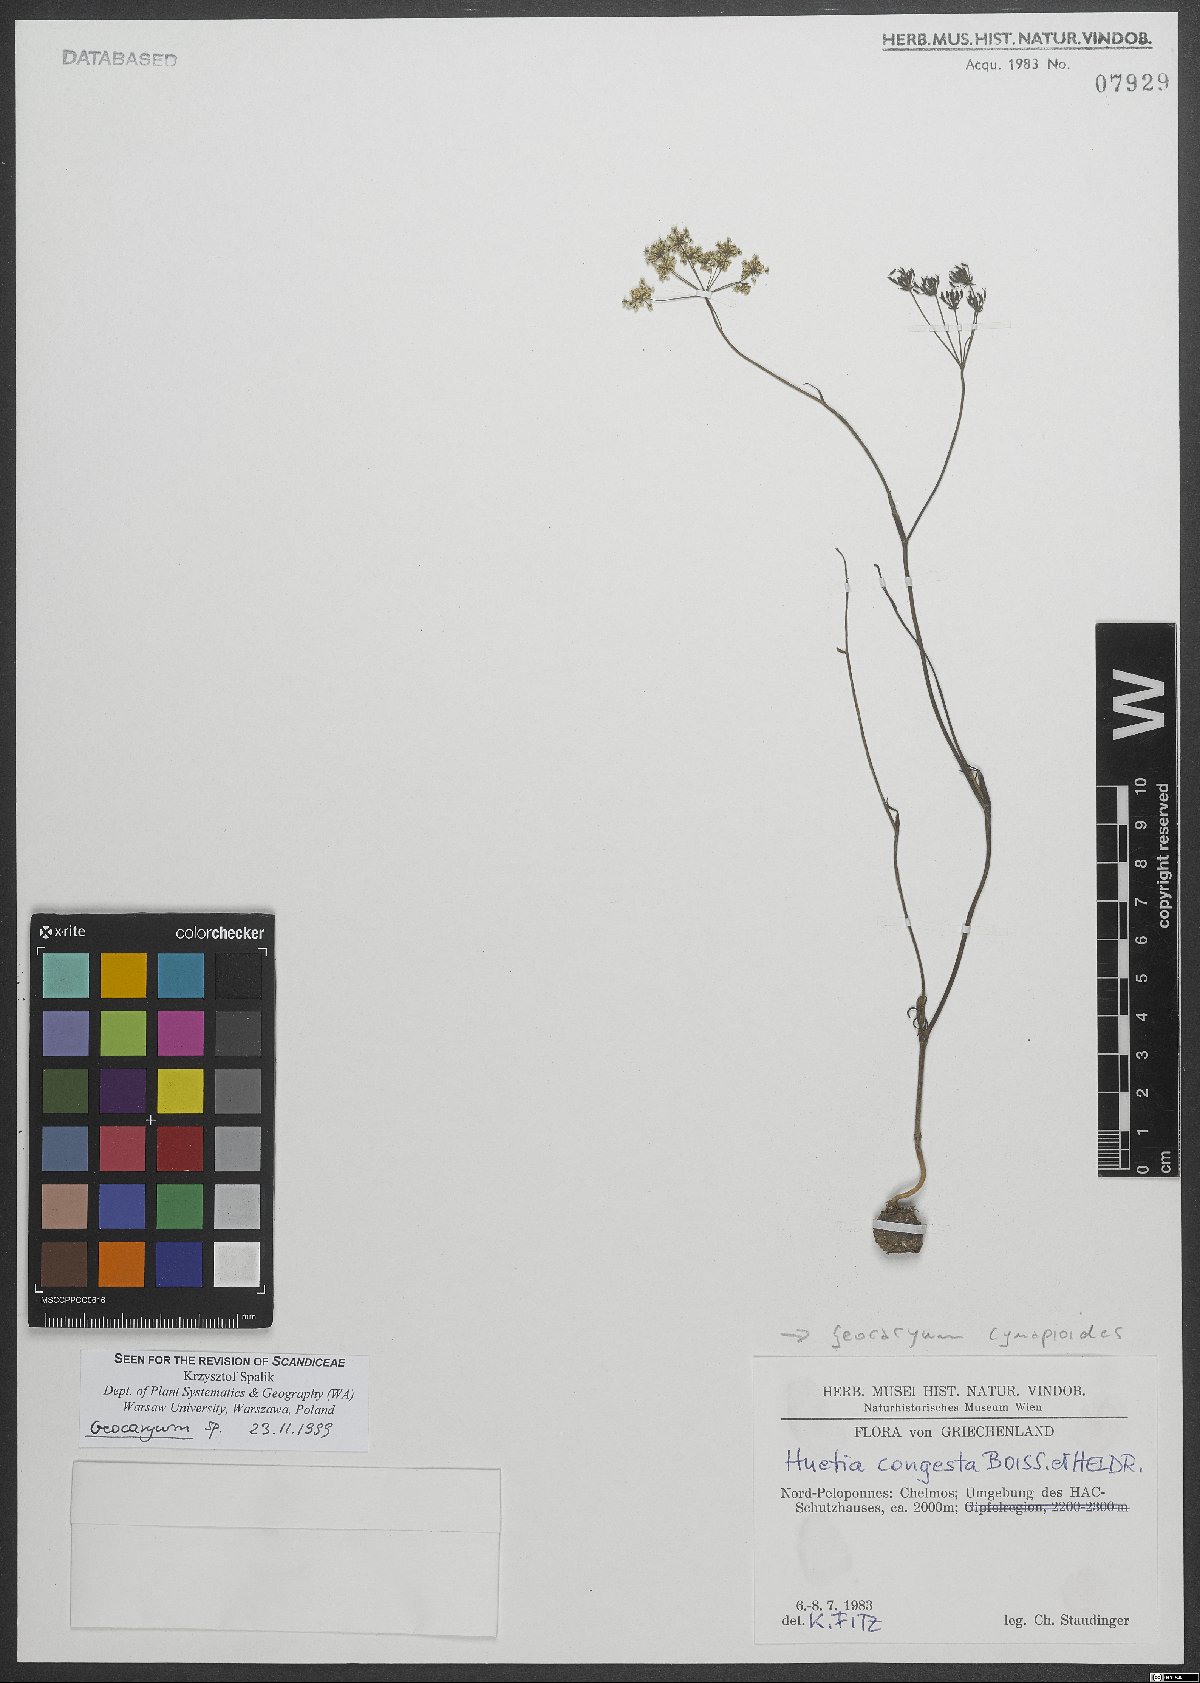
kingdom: Plantae
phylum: Tracheophyta
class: Magnoliopsida
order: Apiales
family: Apiaceae
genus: Geocaryum
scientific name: Geocaryum cynapioides
